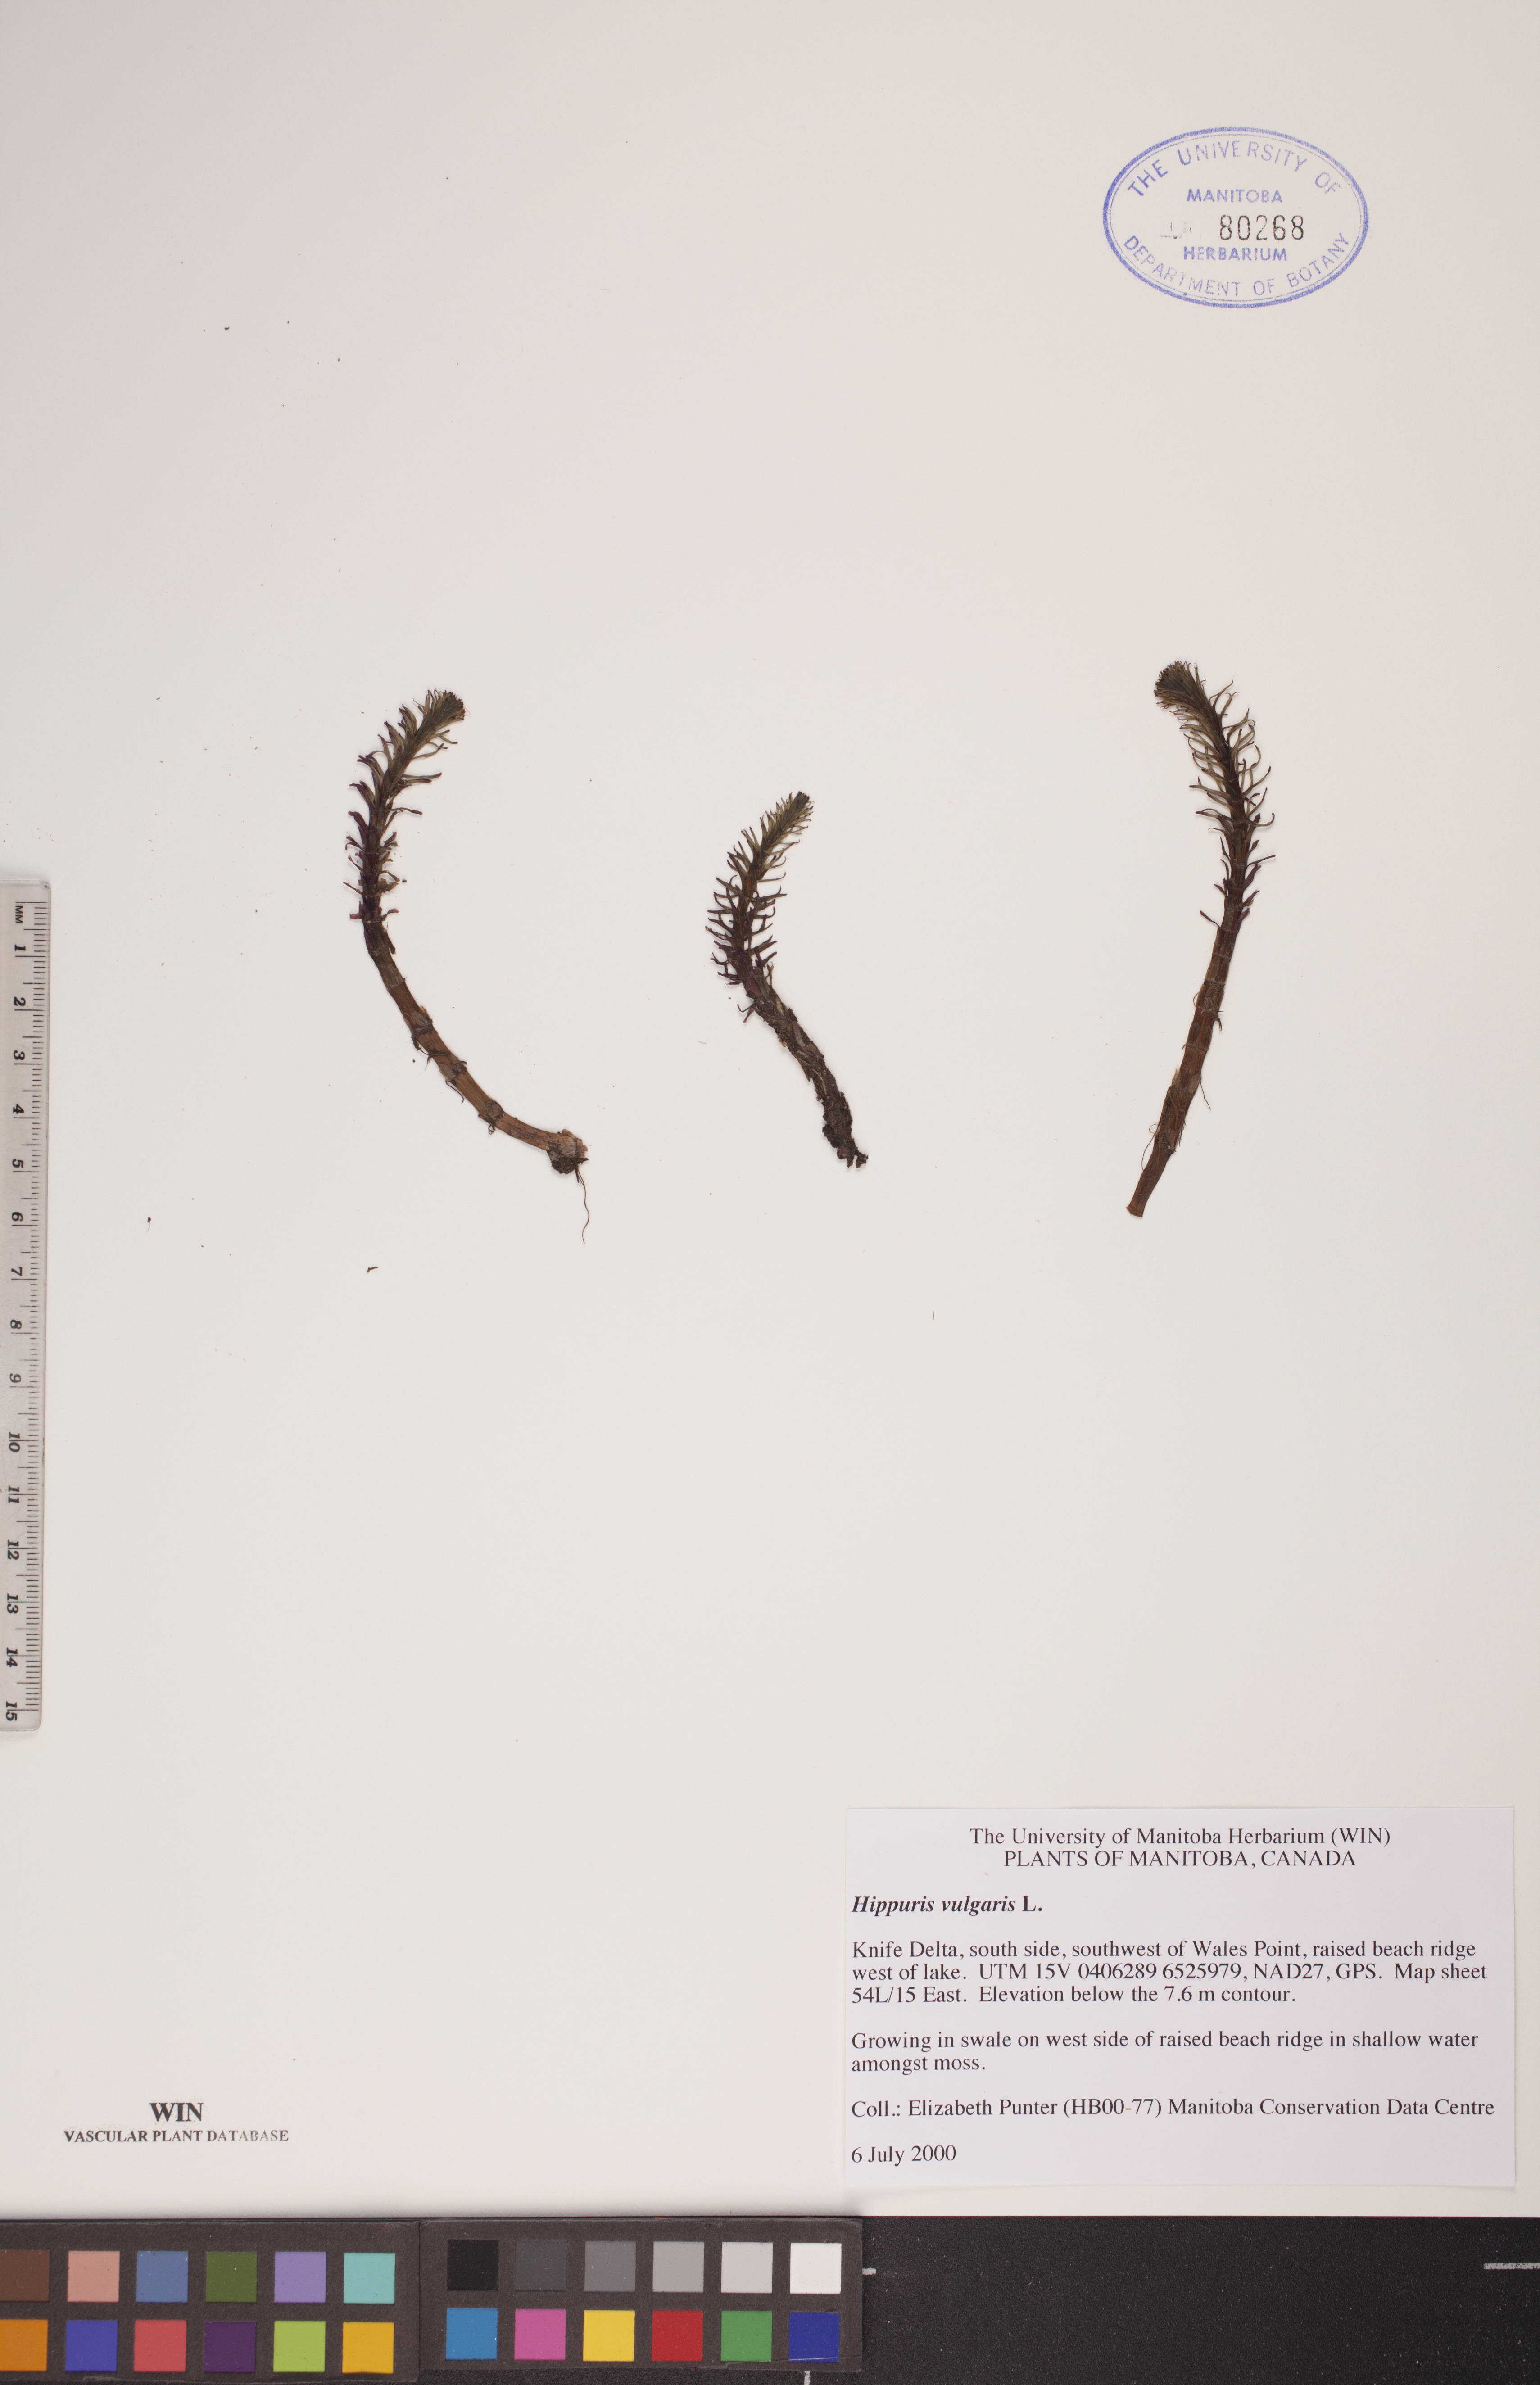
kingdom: Plantae
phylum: Tracheophyta
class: Magnoliopsida
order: Lamiales
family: Plantaginaceae
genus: Hippuris
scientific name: Hippuris vulgaris
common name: Mare's-tail
